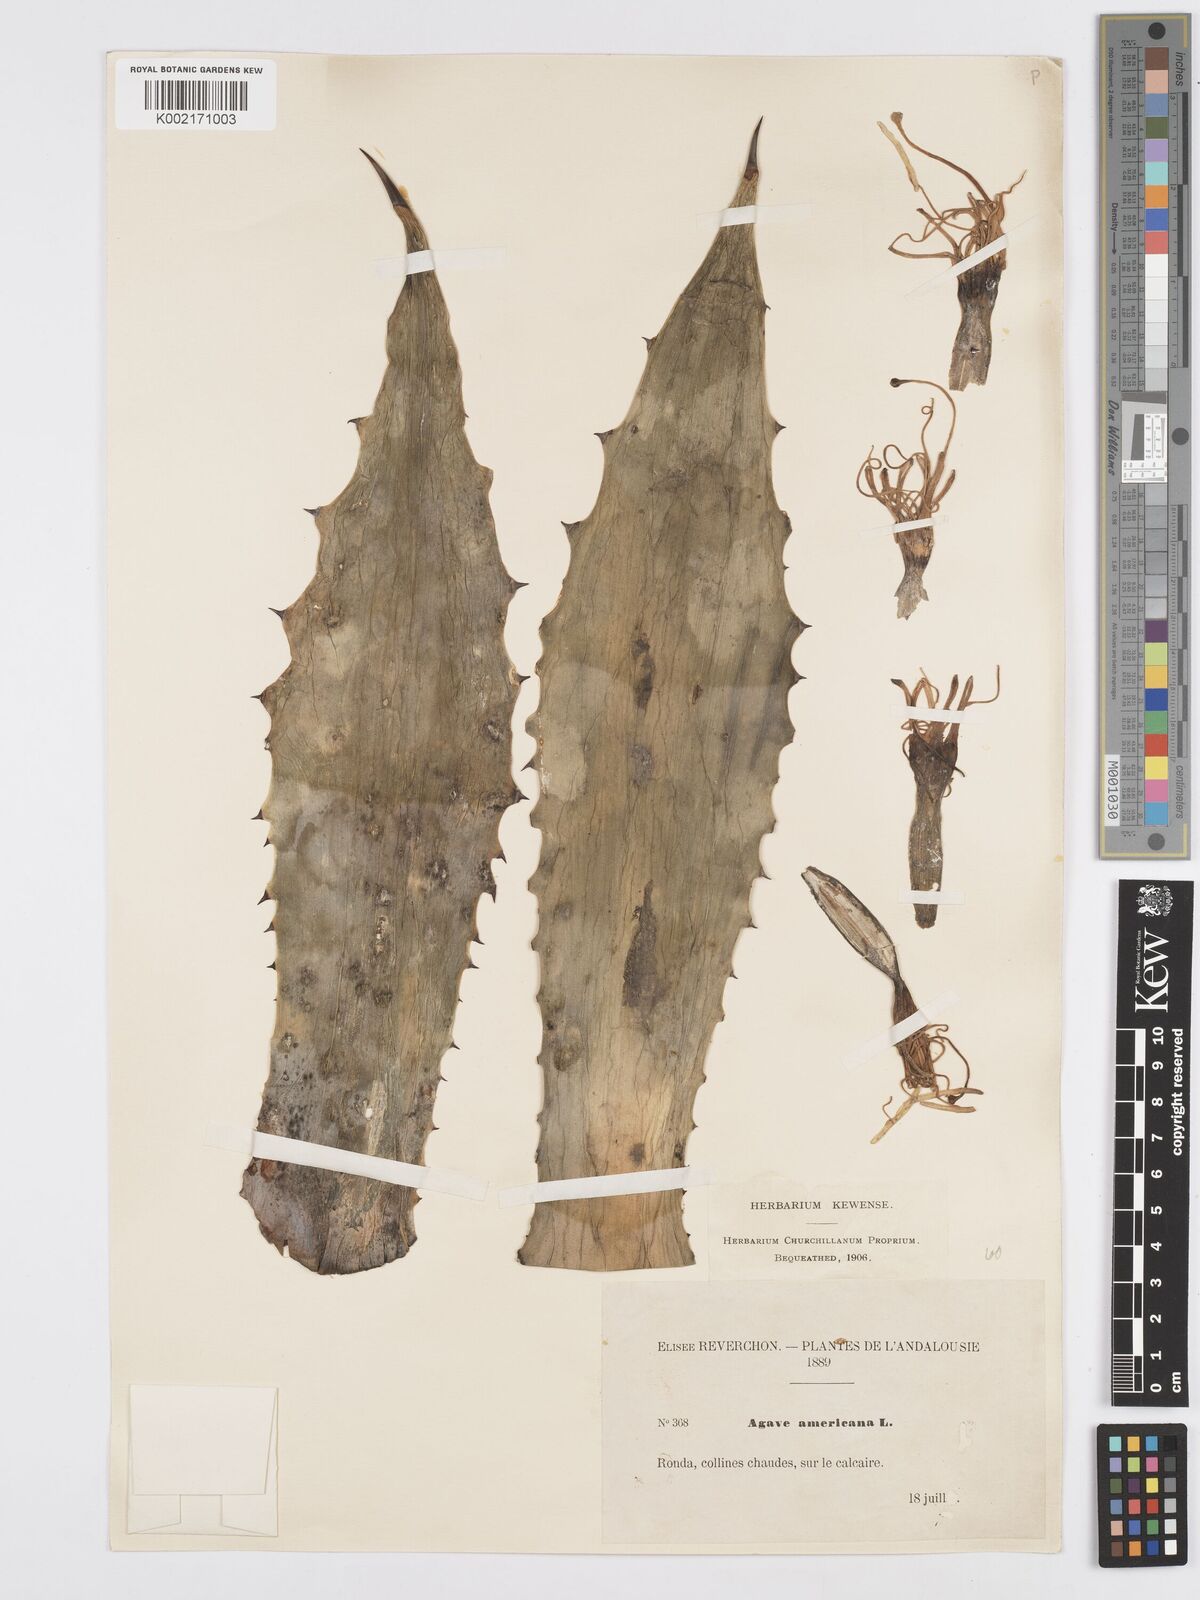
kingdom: Plantae
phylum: Tracheophyta
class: Liliopsida
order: Asparagales
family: Asparagaceae
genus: Agave
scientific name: Agave americana
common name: Centuryplant
